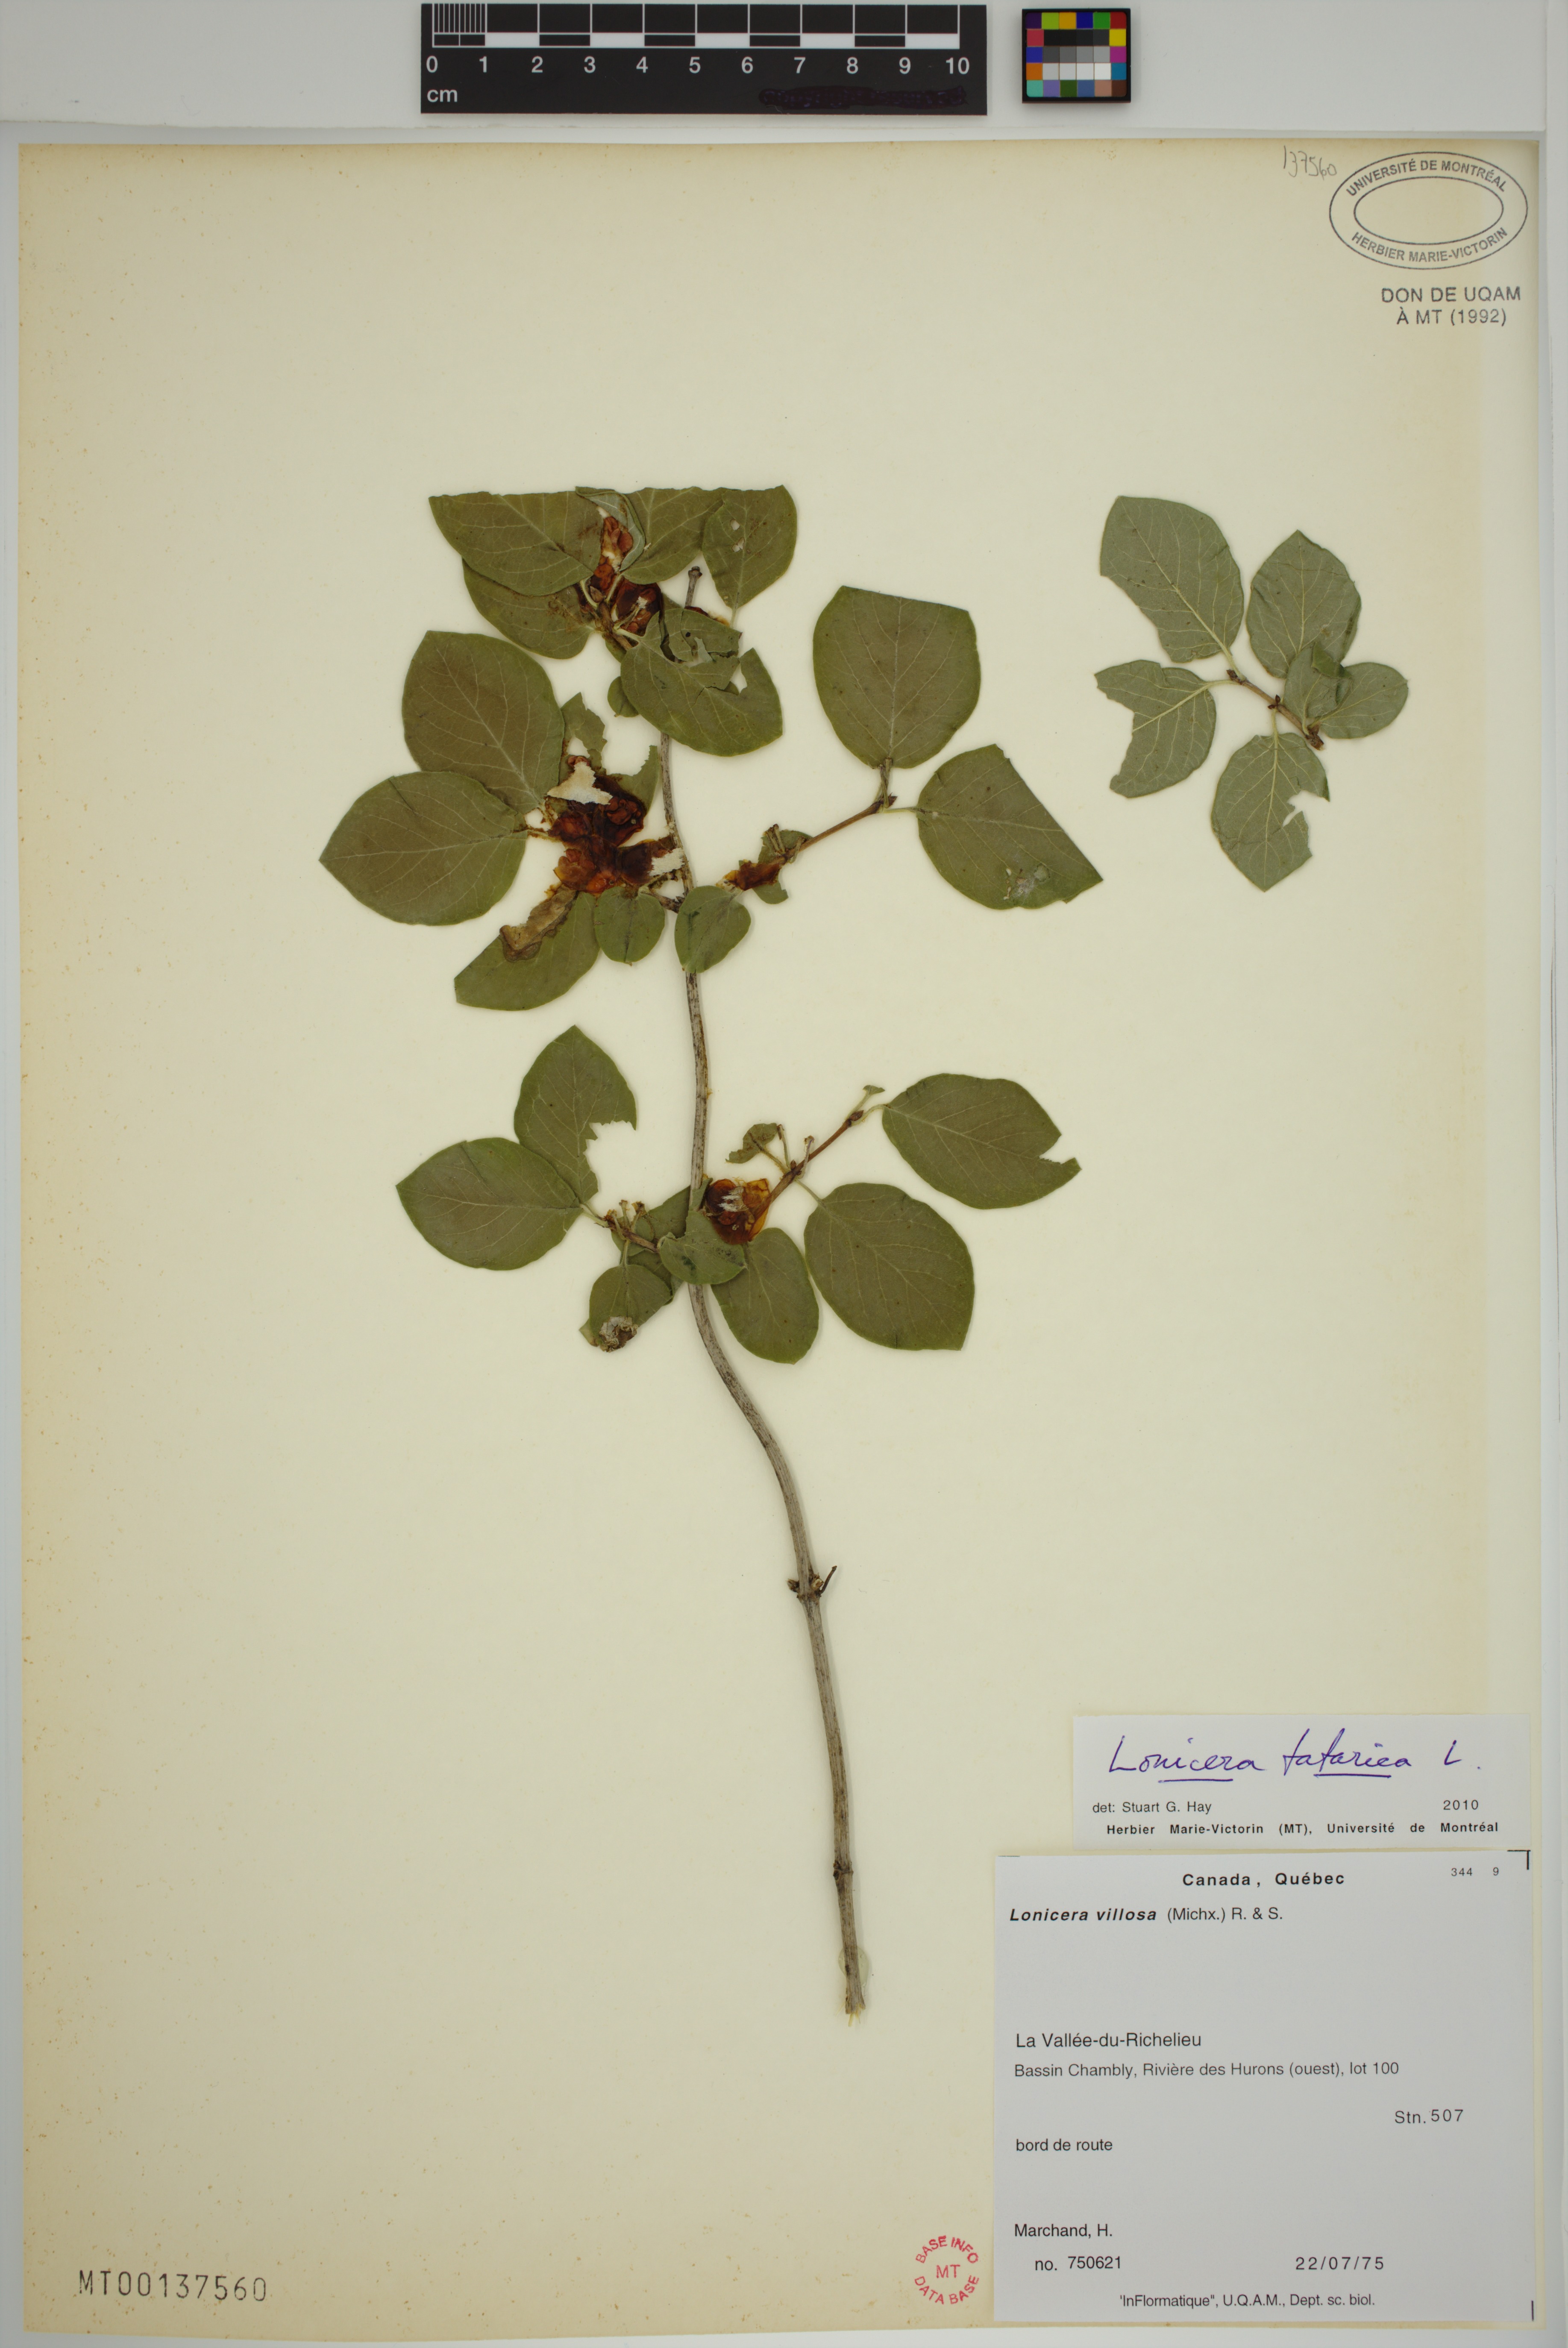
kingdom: Plantae
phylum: Tracheophyta
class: Magnoliopsida
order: Dipsacales
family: Caprifoliaceae
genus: Lonicera
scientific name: Lonicera tatarica
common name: Tatarian honeysuckle
